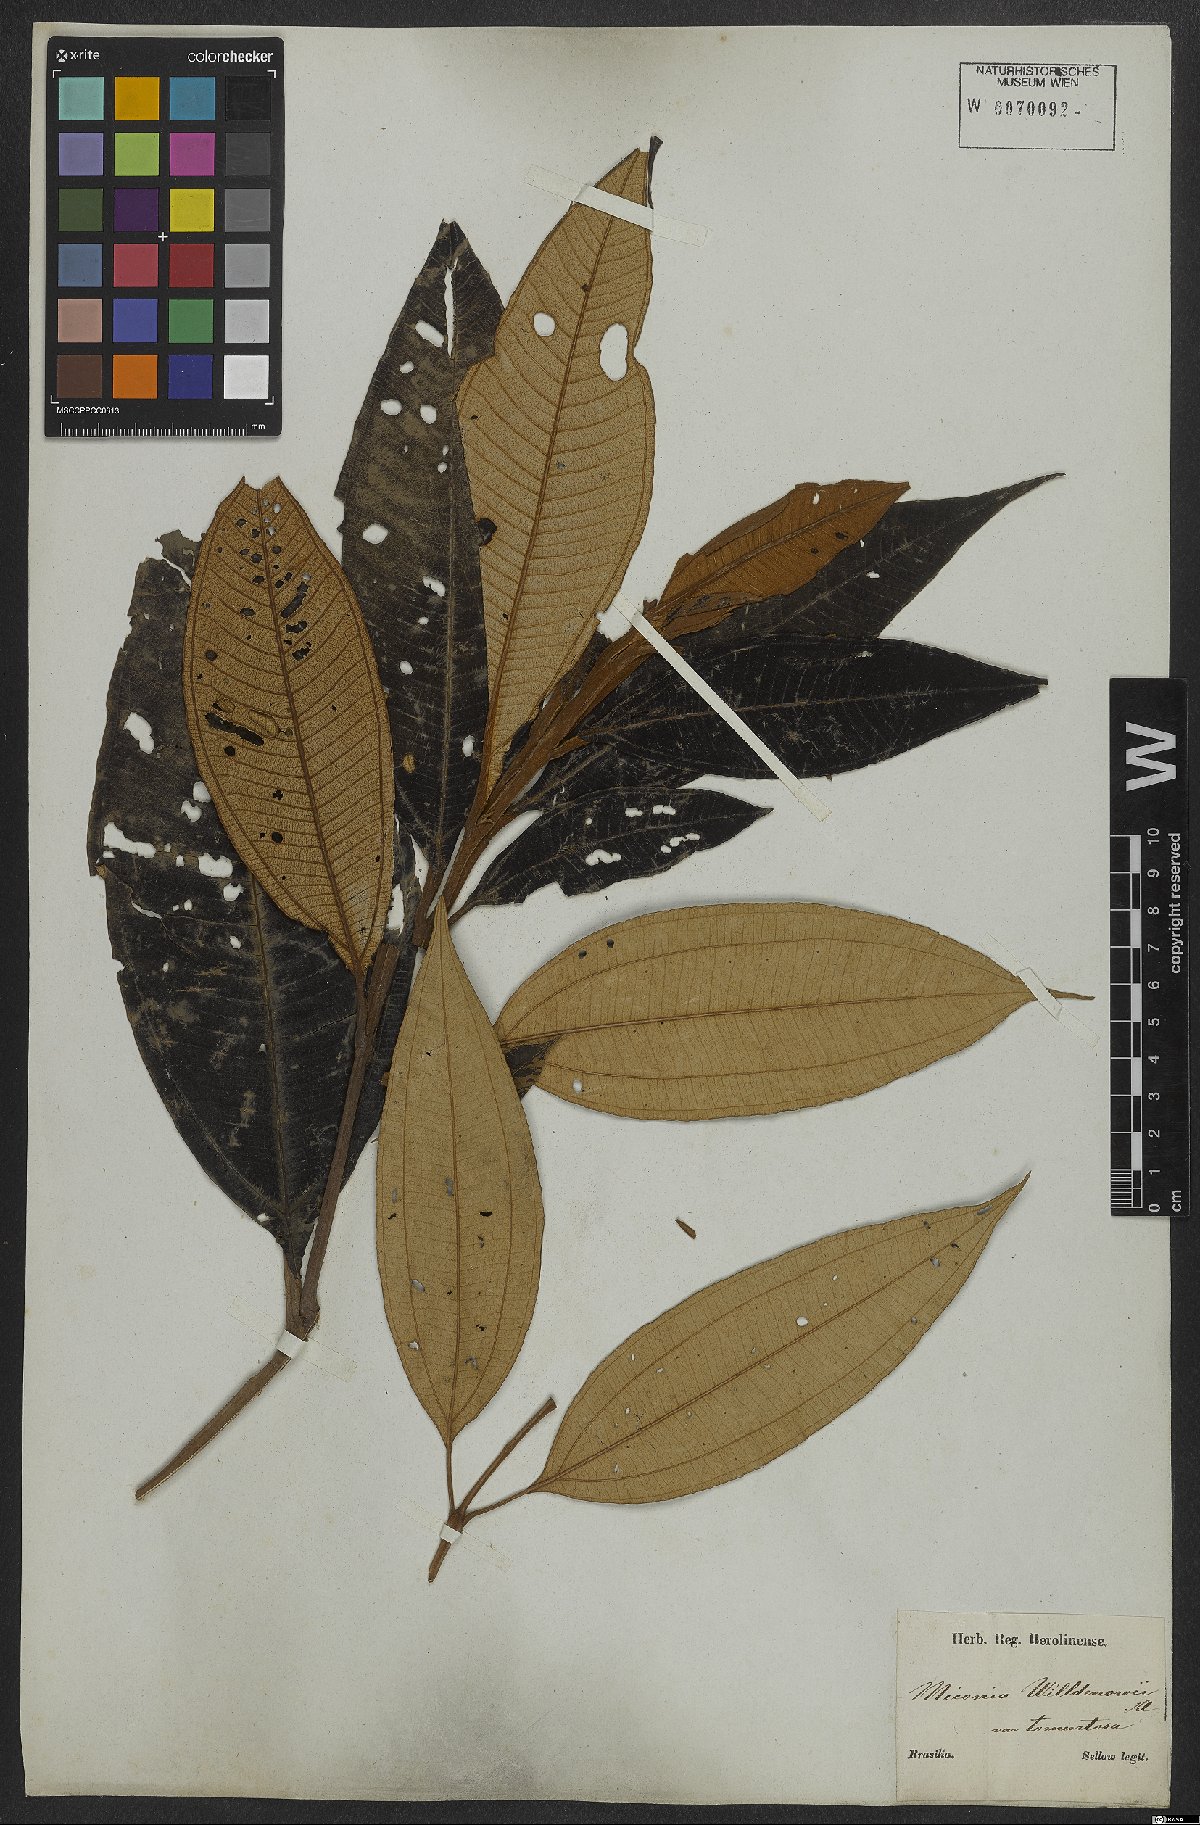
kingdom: Plantae
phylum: Tracheophyta
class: Magnoliopsida
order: Myrtales
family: Melastomataceae
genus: Miconia
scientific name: Miconia willdenowii
